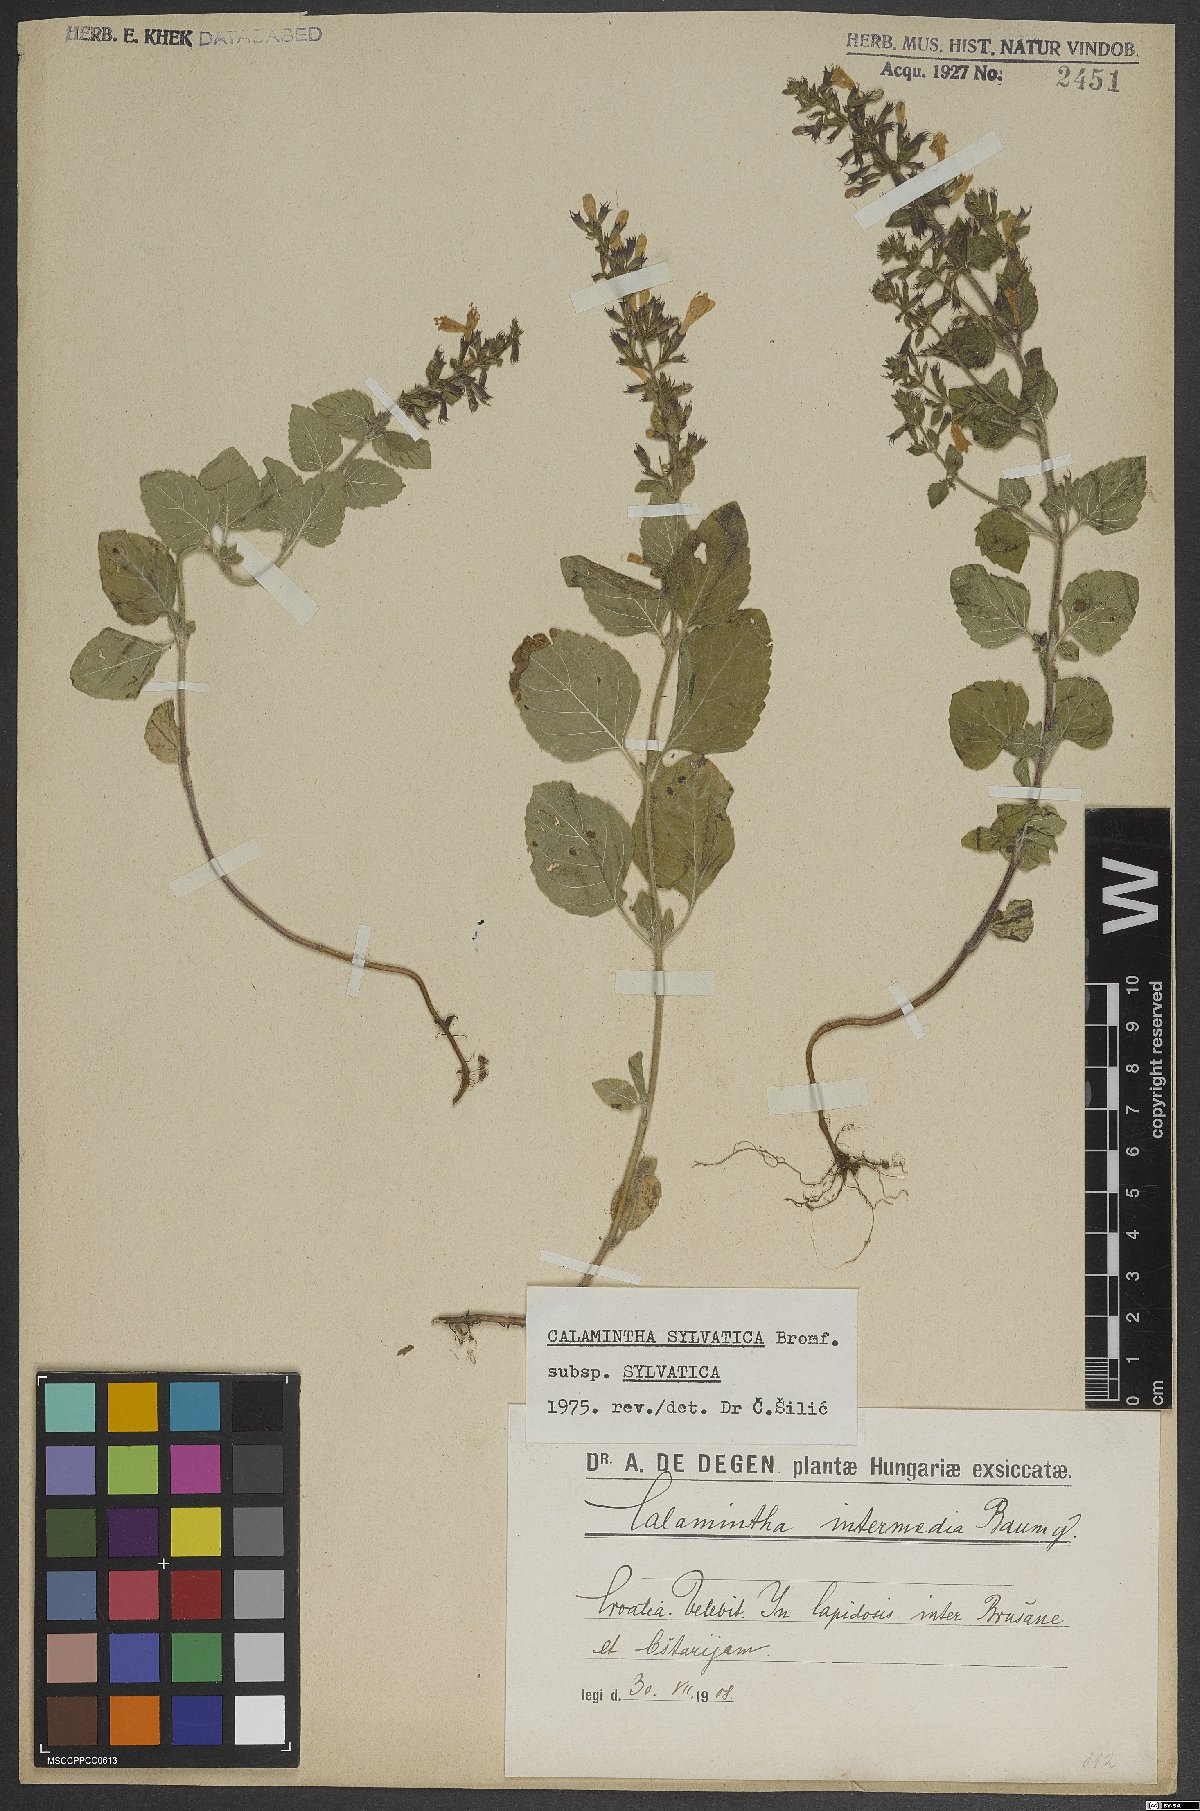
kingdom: Plantae
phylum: Tracheophyta
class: Magnoliopsida
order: Lamiales
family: Lamiaceae
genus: Clinopodium
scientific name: Clinopodium menthifolium
